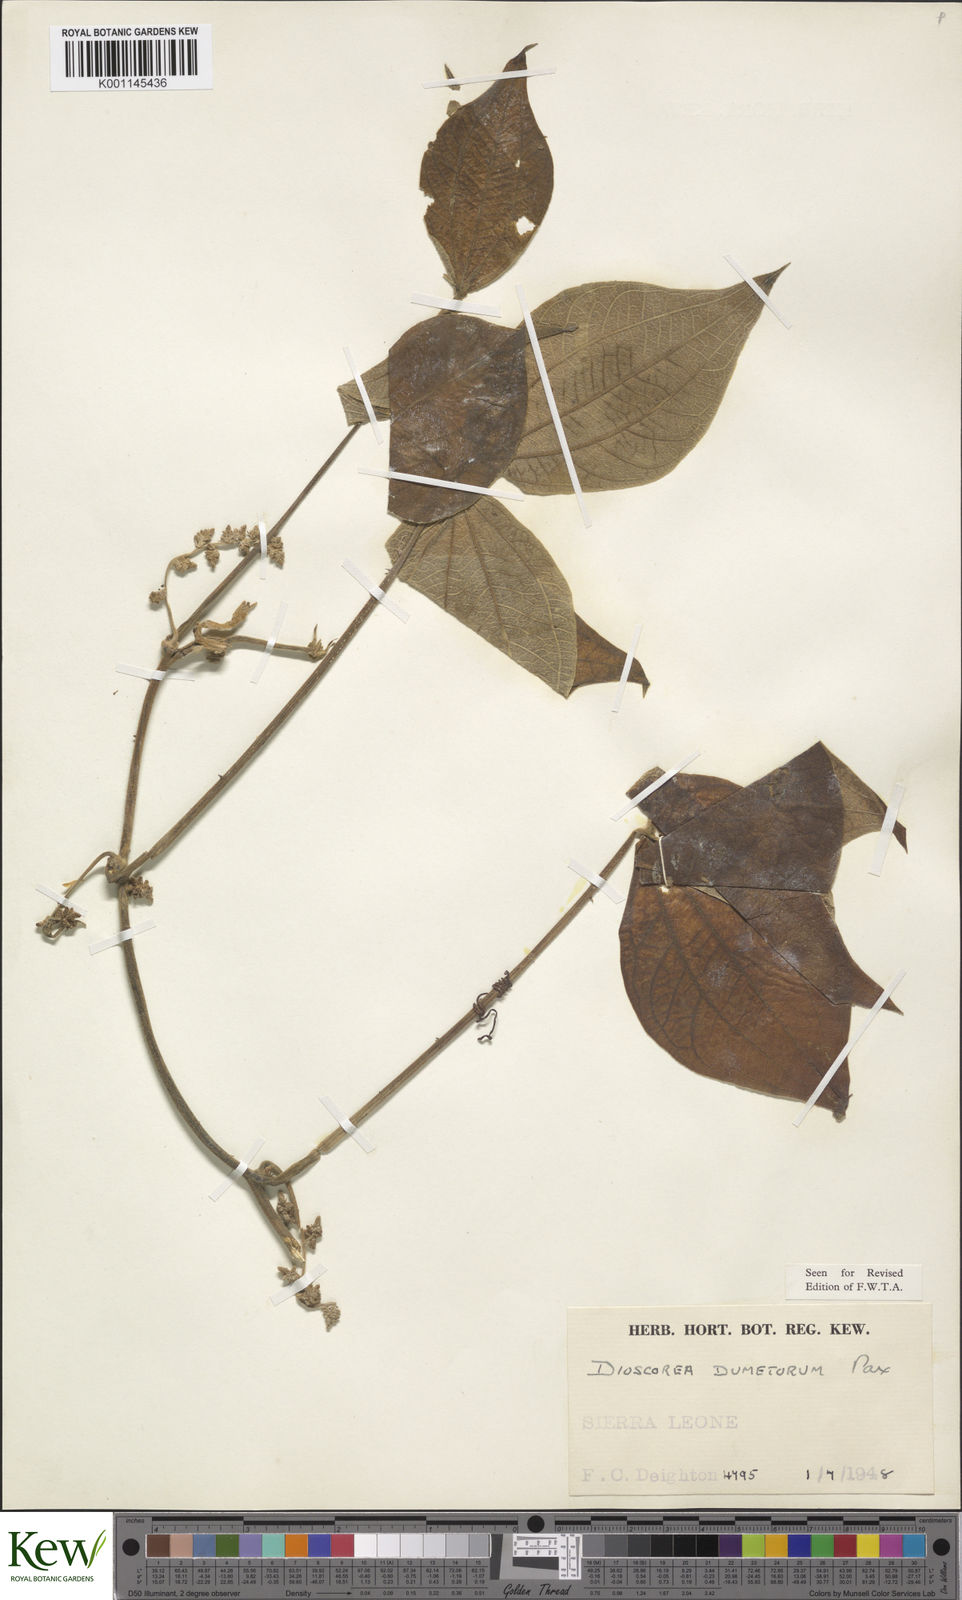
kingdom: Plantae
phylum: Tracheophyta
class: Liliopsida
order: Dioscoreales
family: Dioscoreaceae
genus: Dioscorea
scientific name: Dioscorea dumetorum
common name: African bitter yam
